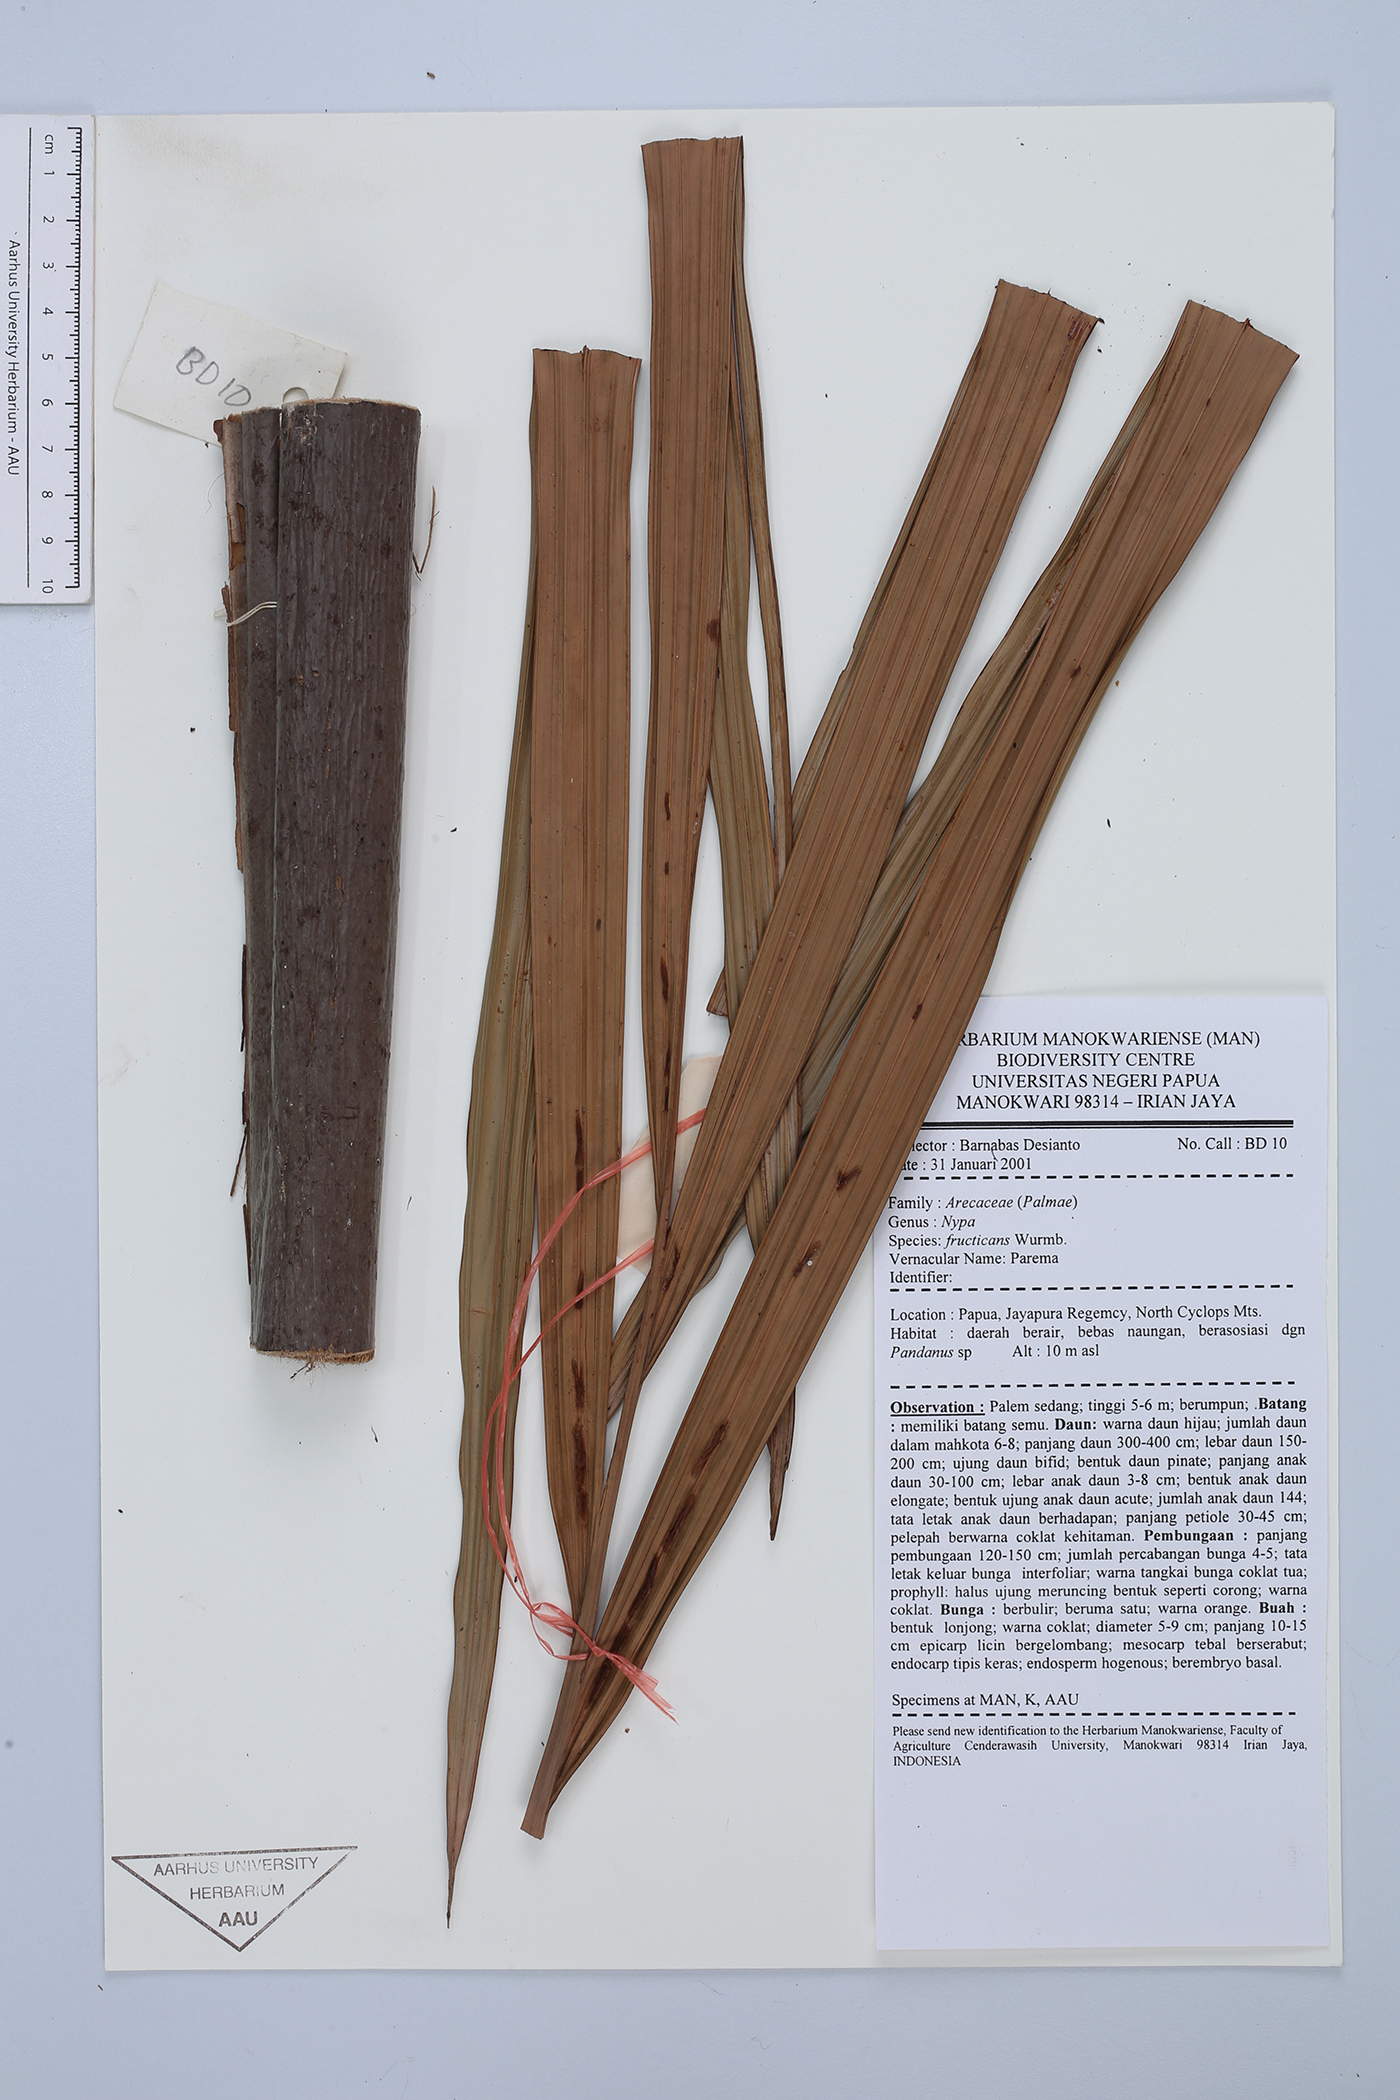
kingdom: Plantae
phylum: Tracheophyta
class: Liliopsida
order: Arecales
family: Arecaceae
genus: Nypa
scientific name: Nypa fruticans
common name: Mangrove palm
